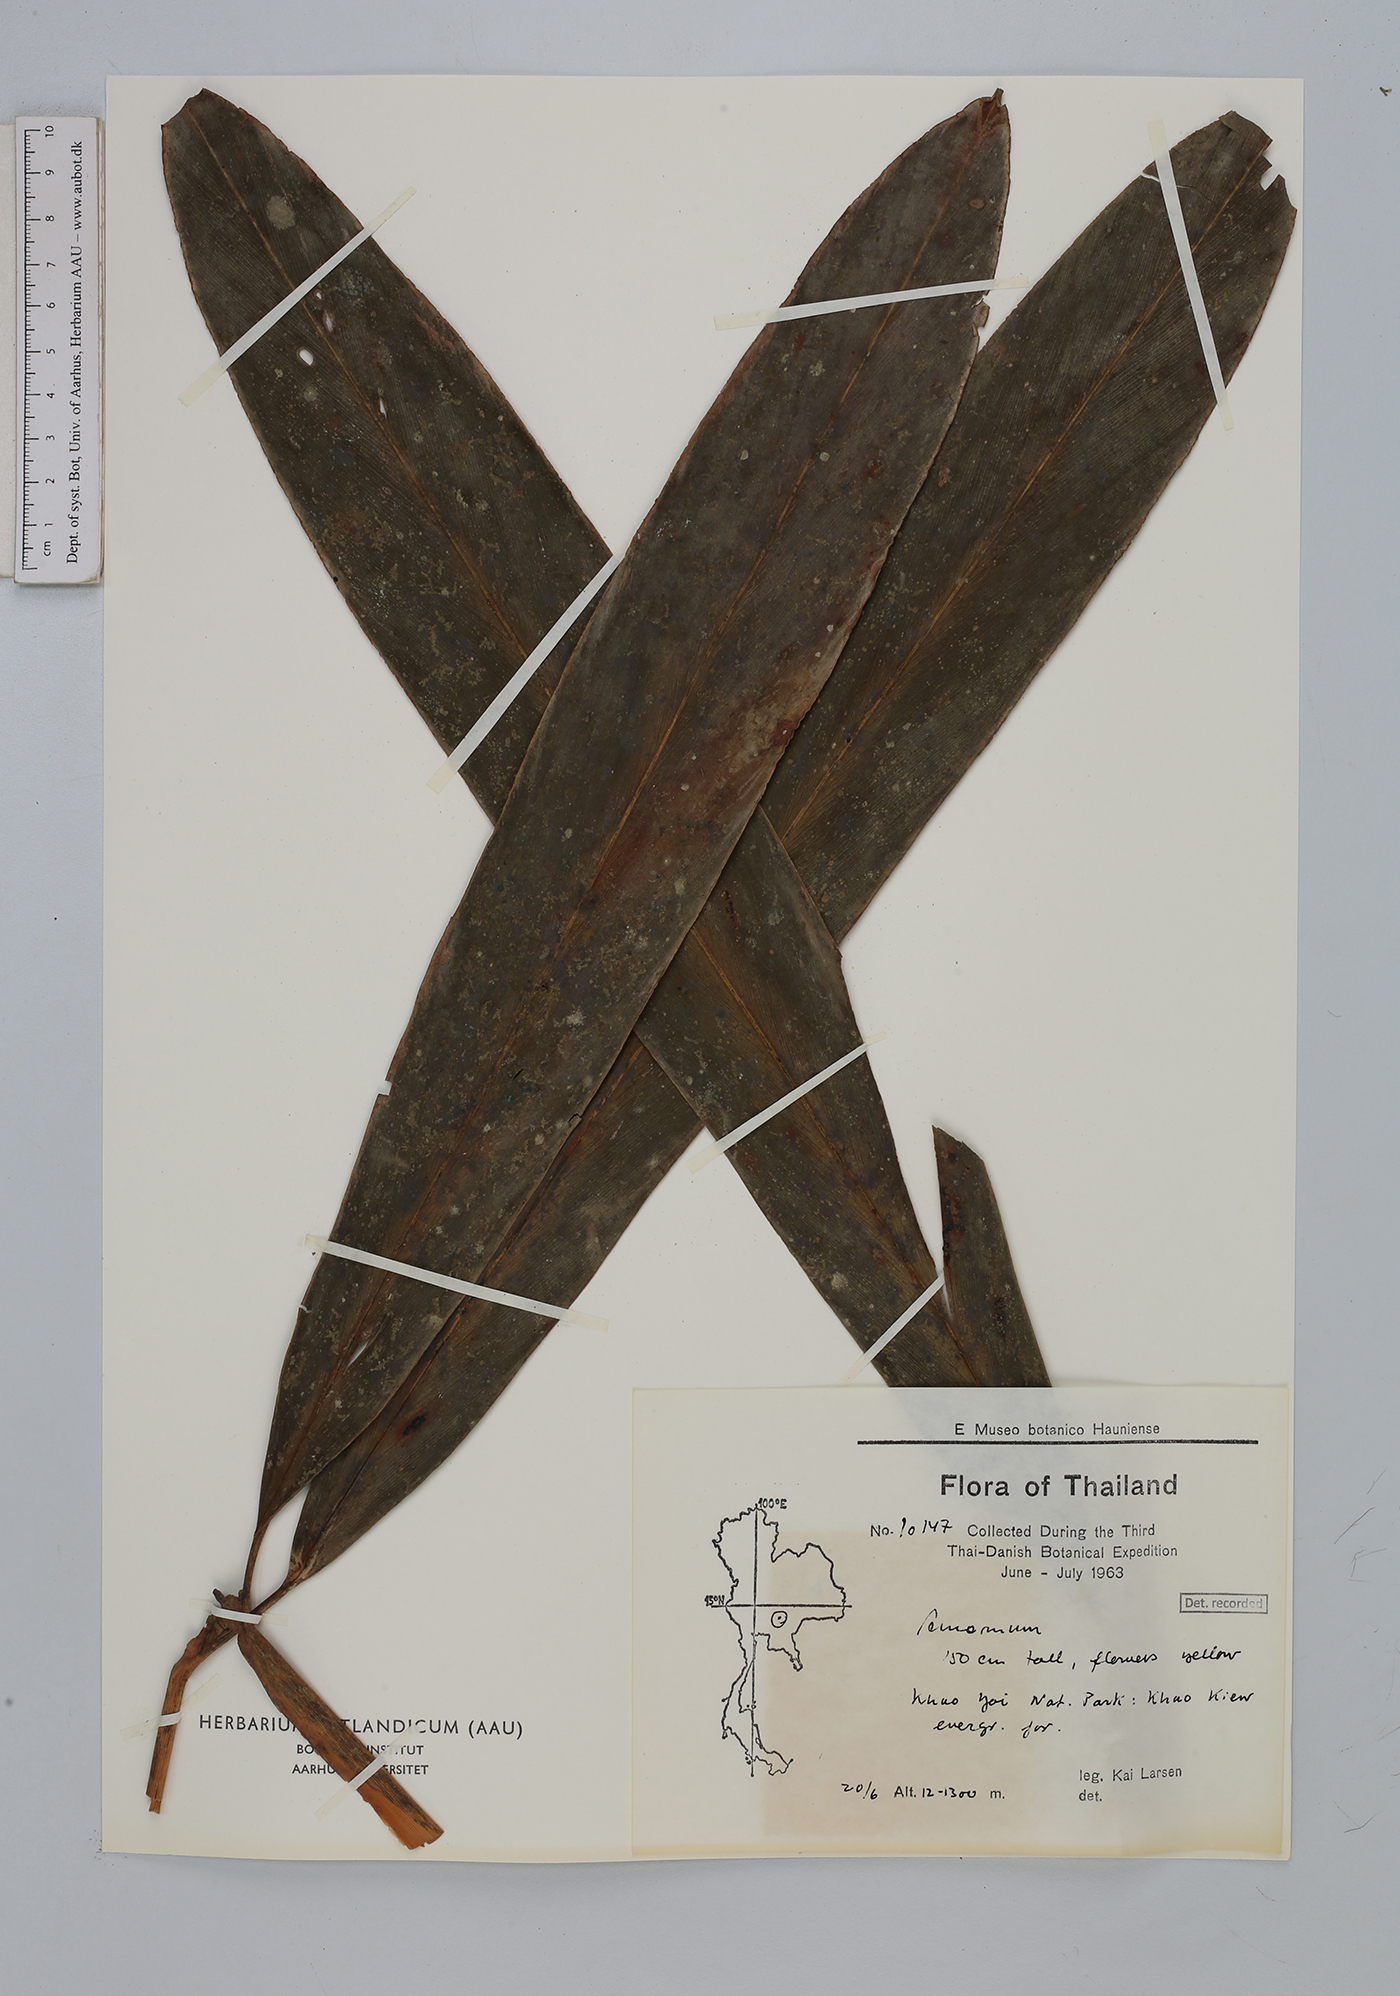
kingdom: Plantae
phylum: Tracheophyta
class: Liliopsida
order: Zingiberales
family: Zingiberaceae
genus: Amomum
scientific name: Amomum
